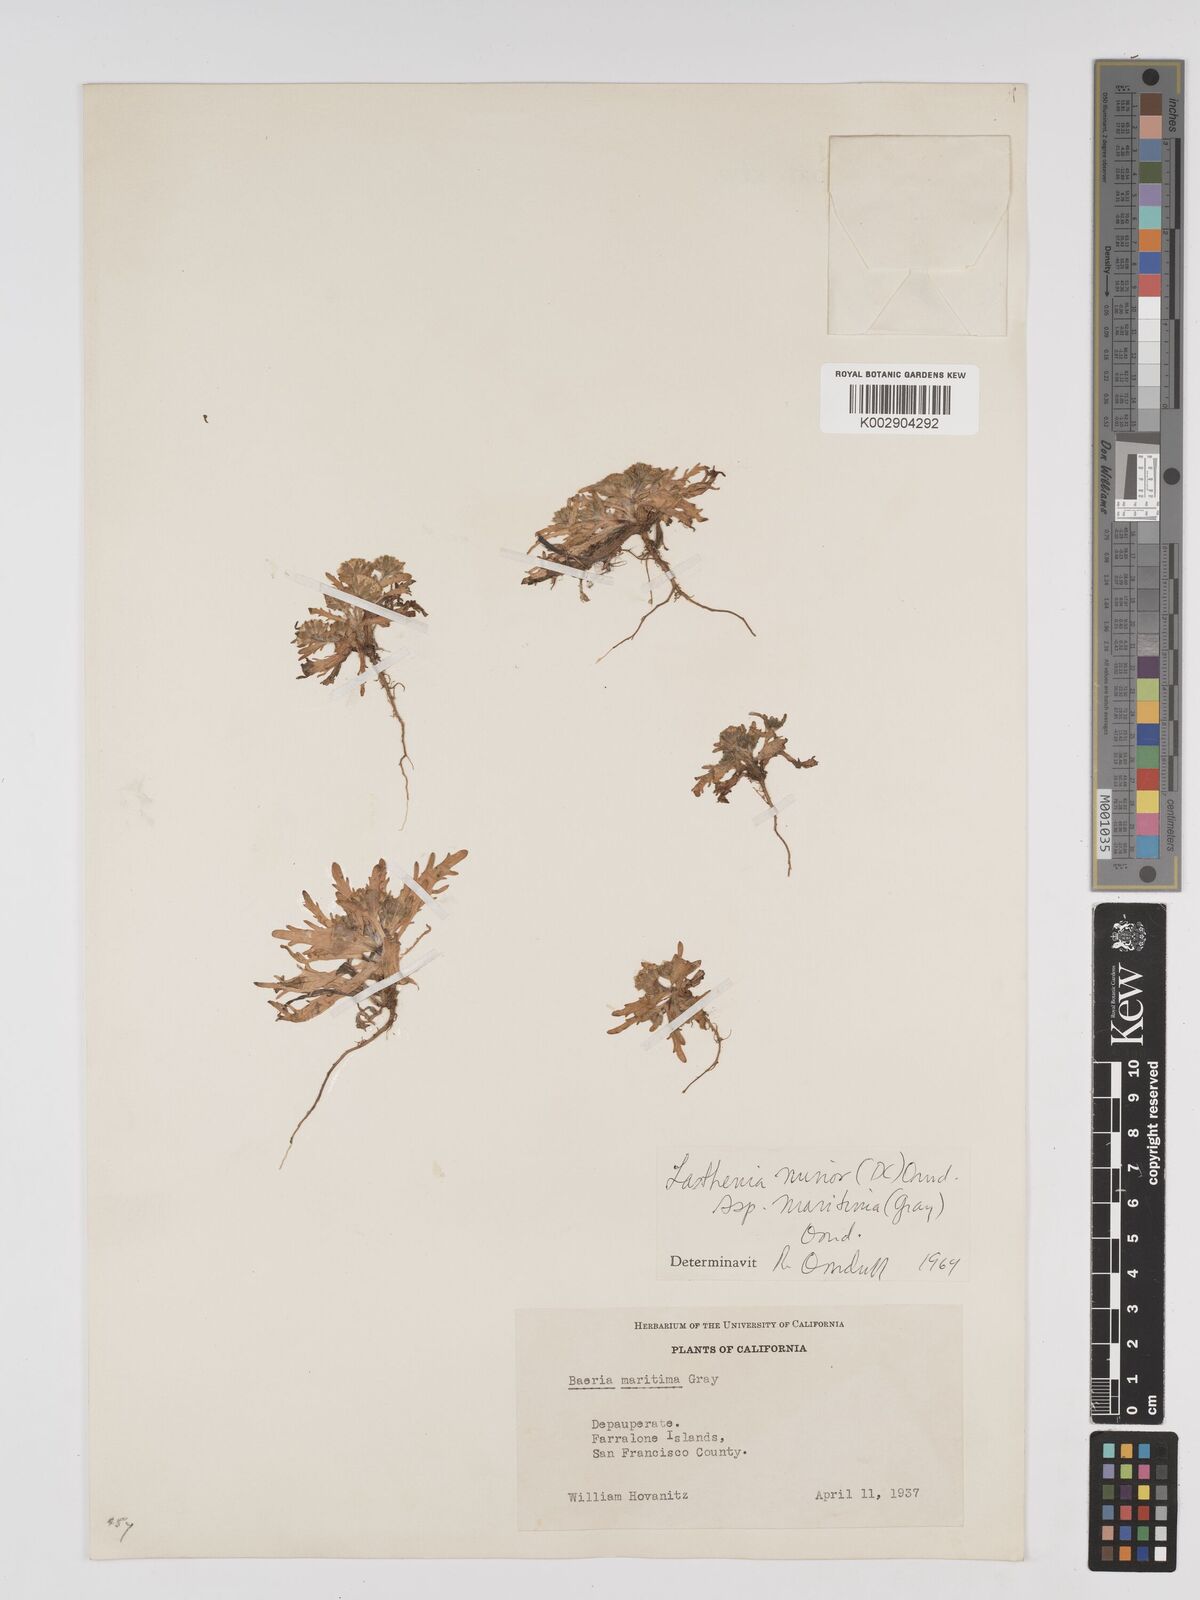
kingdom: Plantae
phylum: Tracheophyta
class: Magnoliopsida
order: Asterales
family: Asteraceae
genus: Lasthenia
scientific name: Lasthenia maritima
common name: Hairy goldfields
